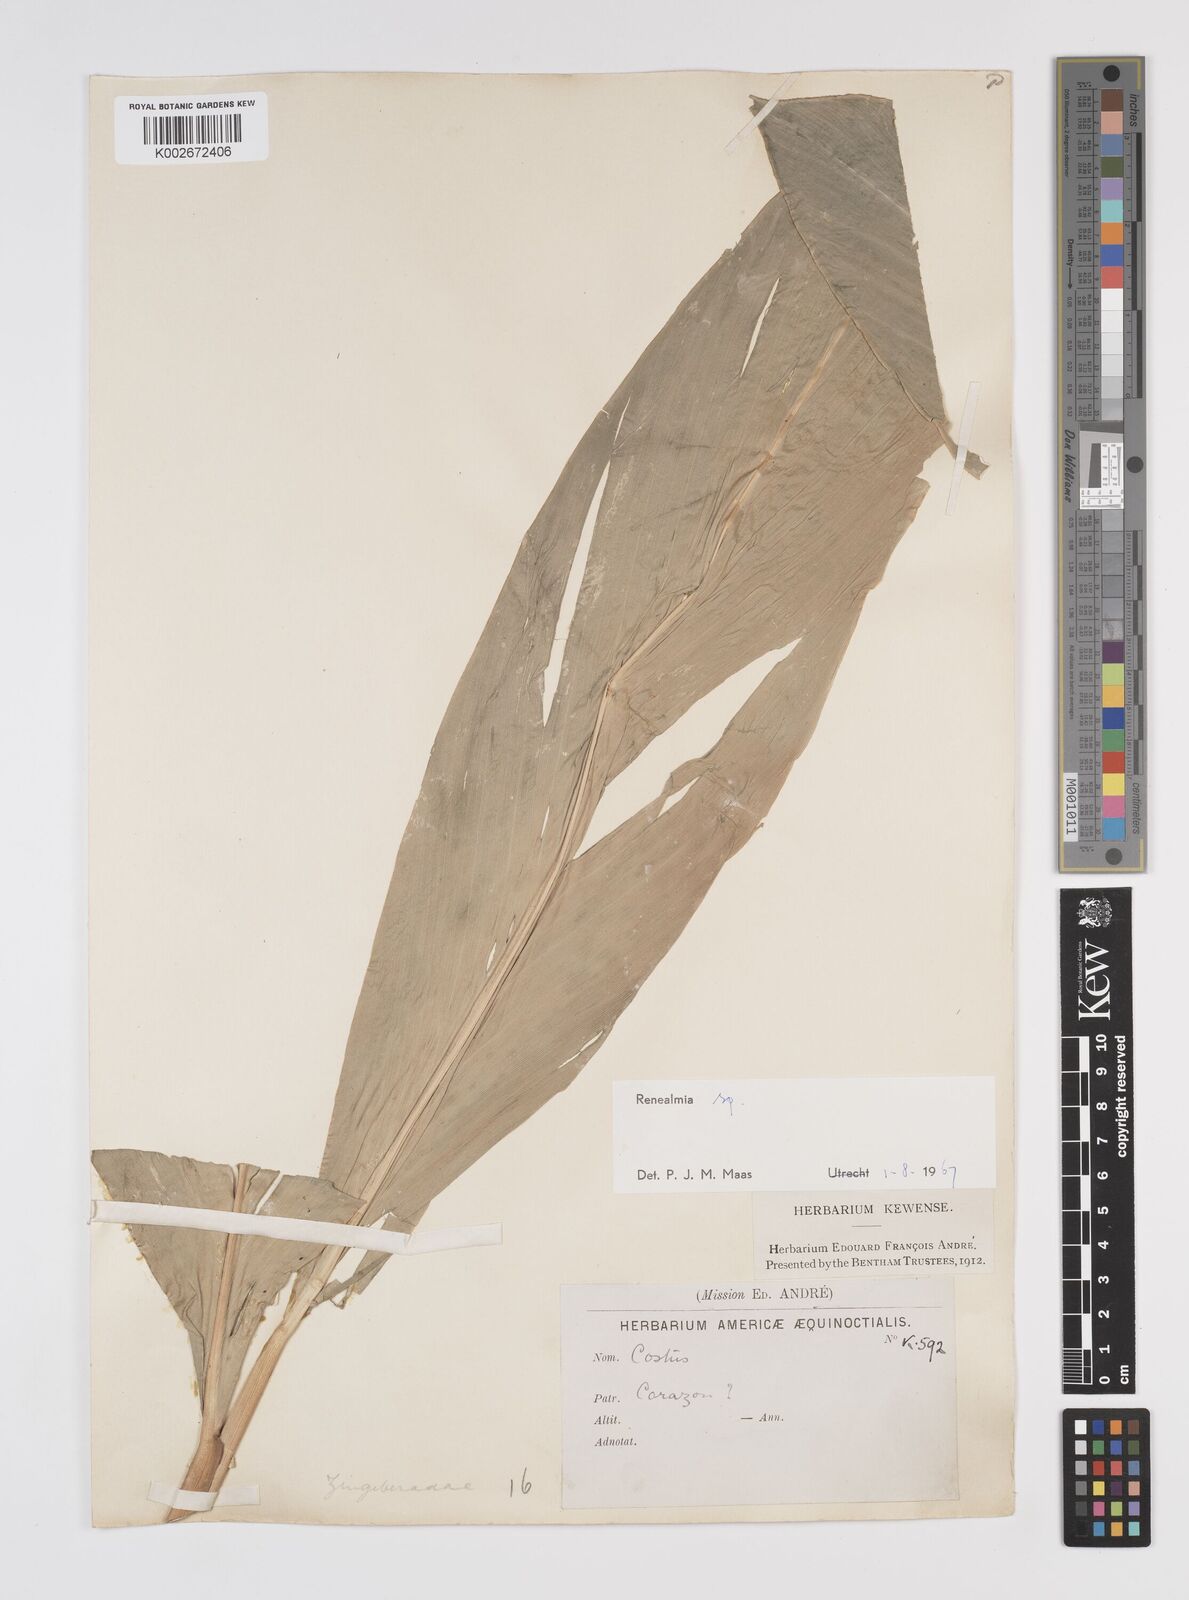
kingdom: Plantae
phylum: Tracheophyta
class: Liliopsida
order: Zingiberales
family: Zingiberaceae
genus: Renealmia
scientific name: Renealmia
